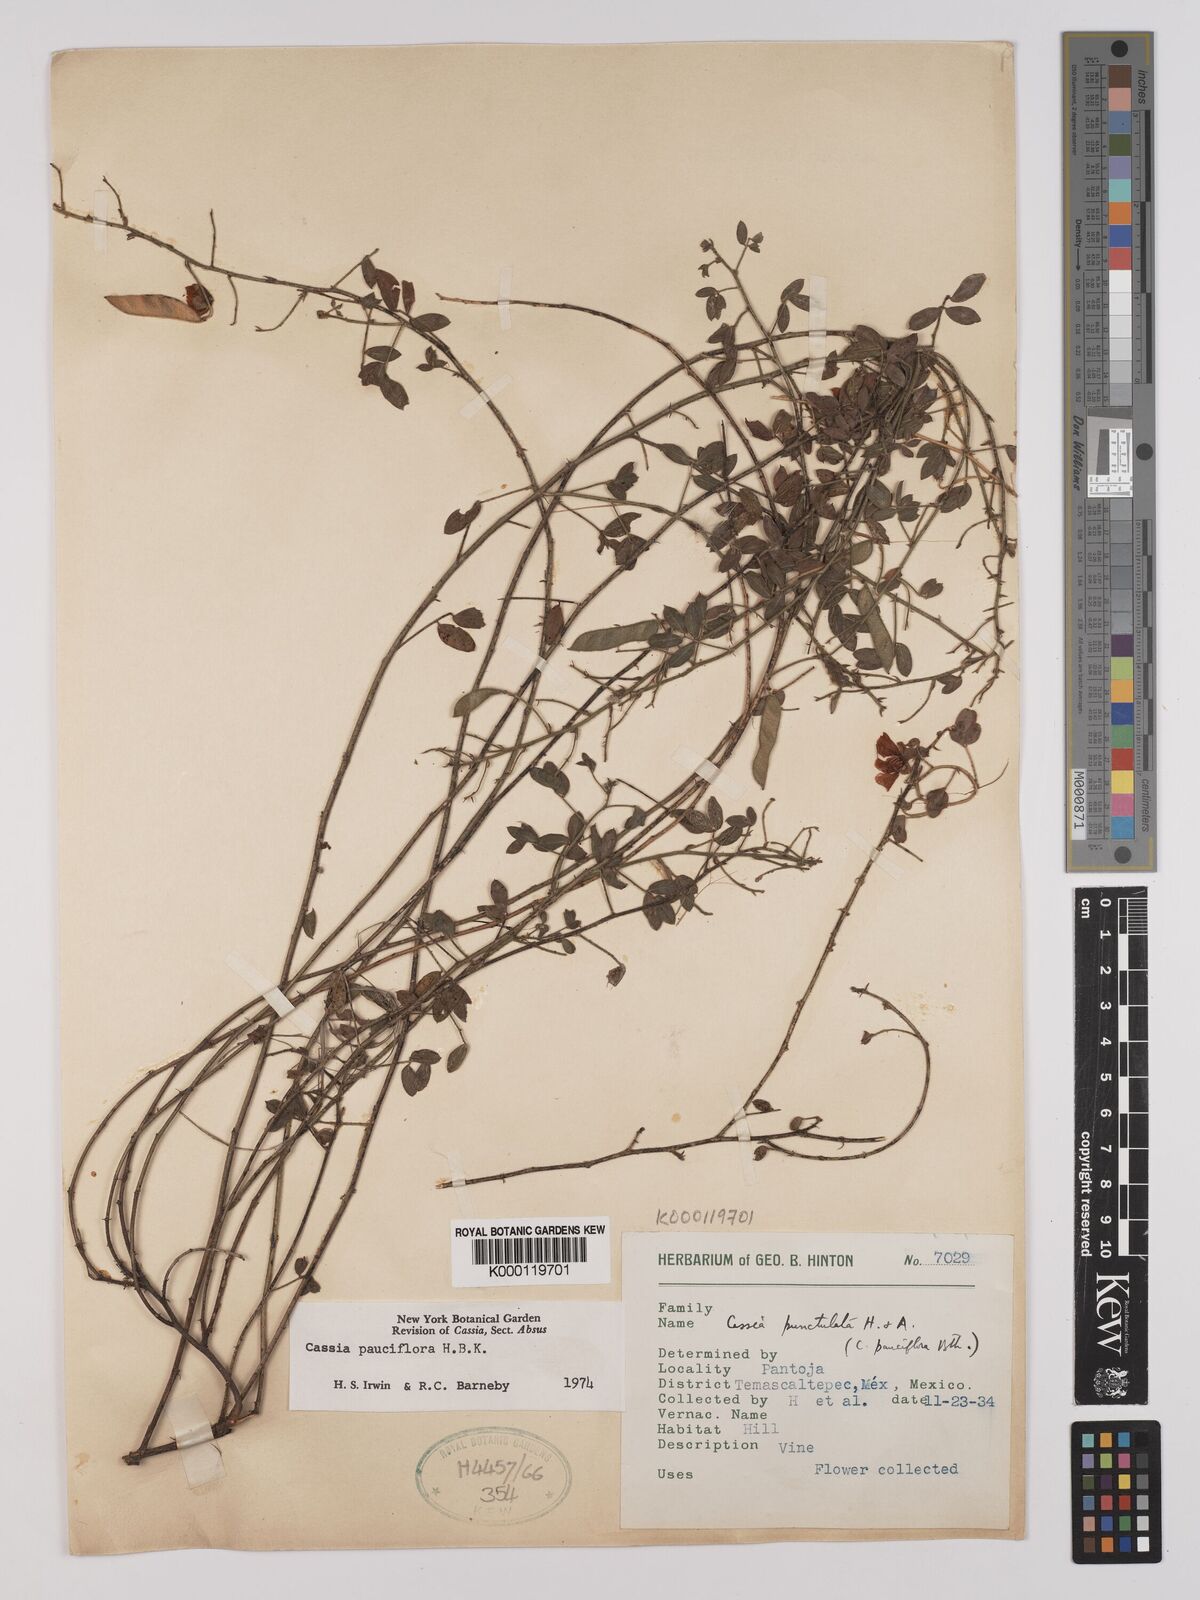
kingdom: Plantae
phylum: Tracheophyta
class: Magnoliopsida
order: Fabales
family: Fabaceae
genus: Chamaecrista
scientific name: Chamaecrista hispidula
